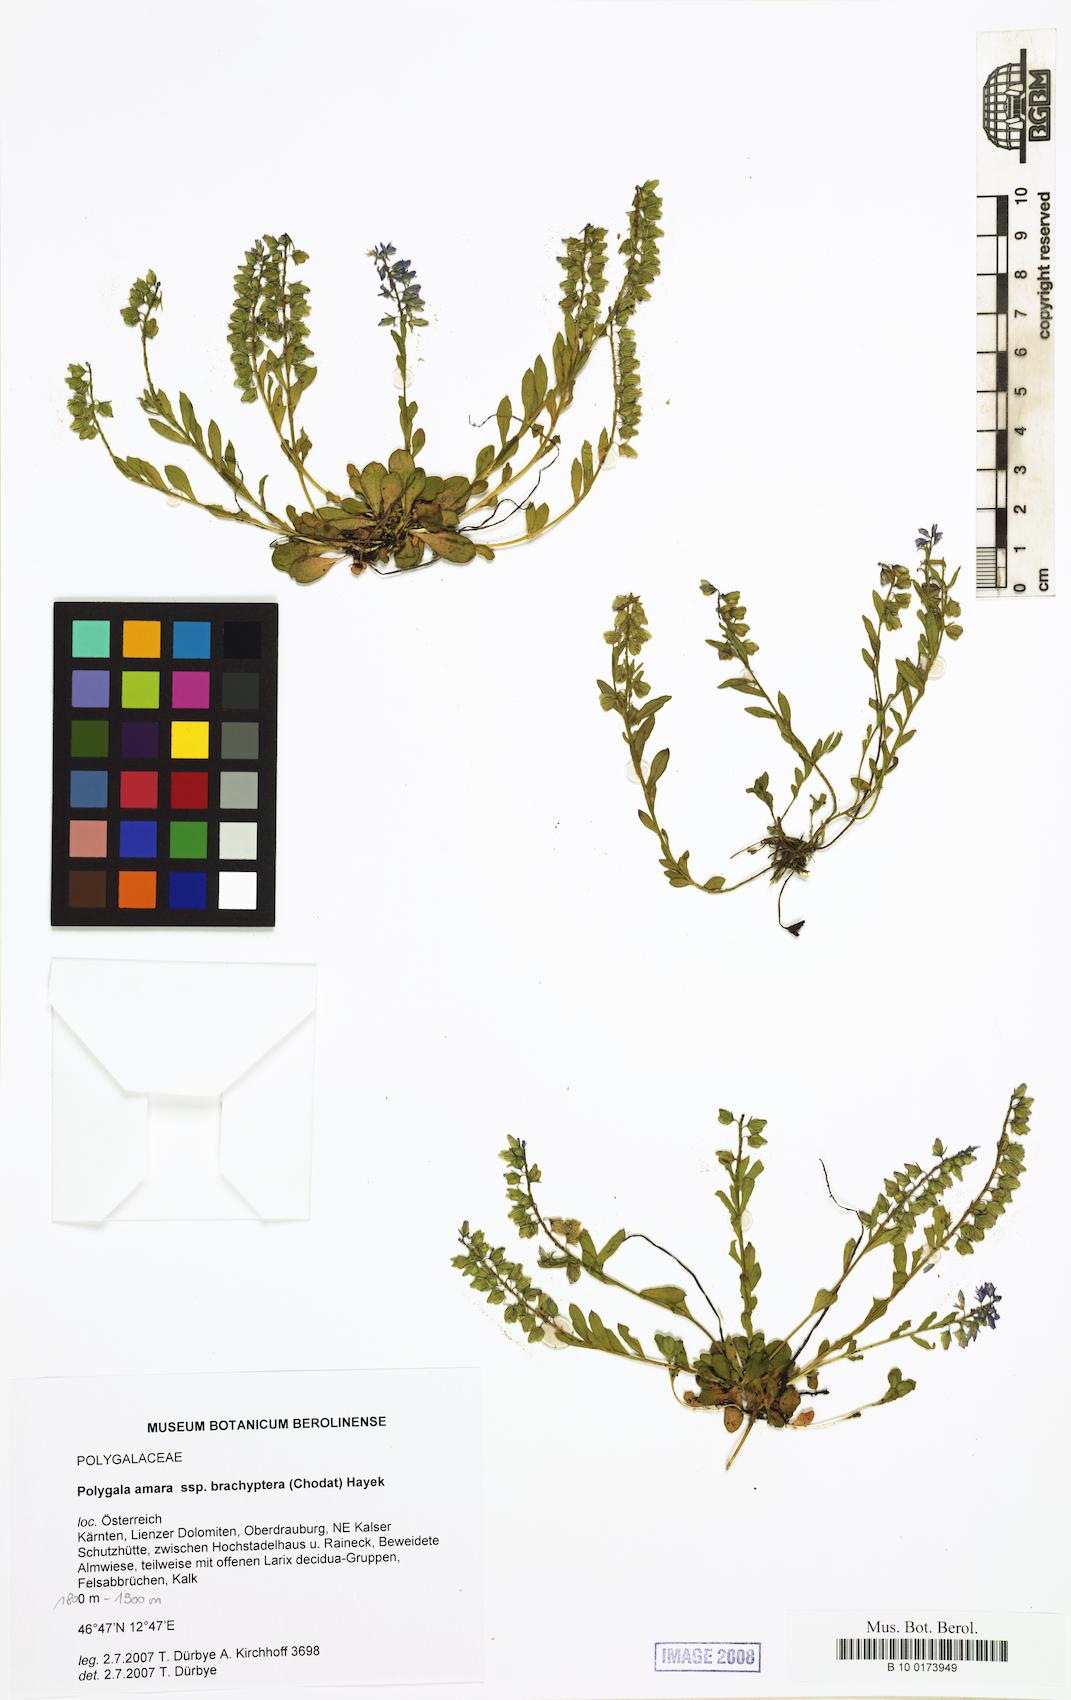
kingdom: Plantae
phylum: Tracheophyta
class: Magnoliopsida
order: Fabales
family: Polygalaceae
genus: Polygala
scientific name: Polygala amara
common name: Milkwort
